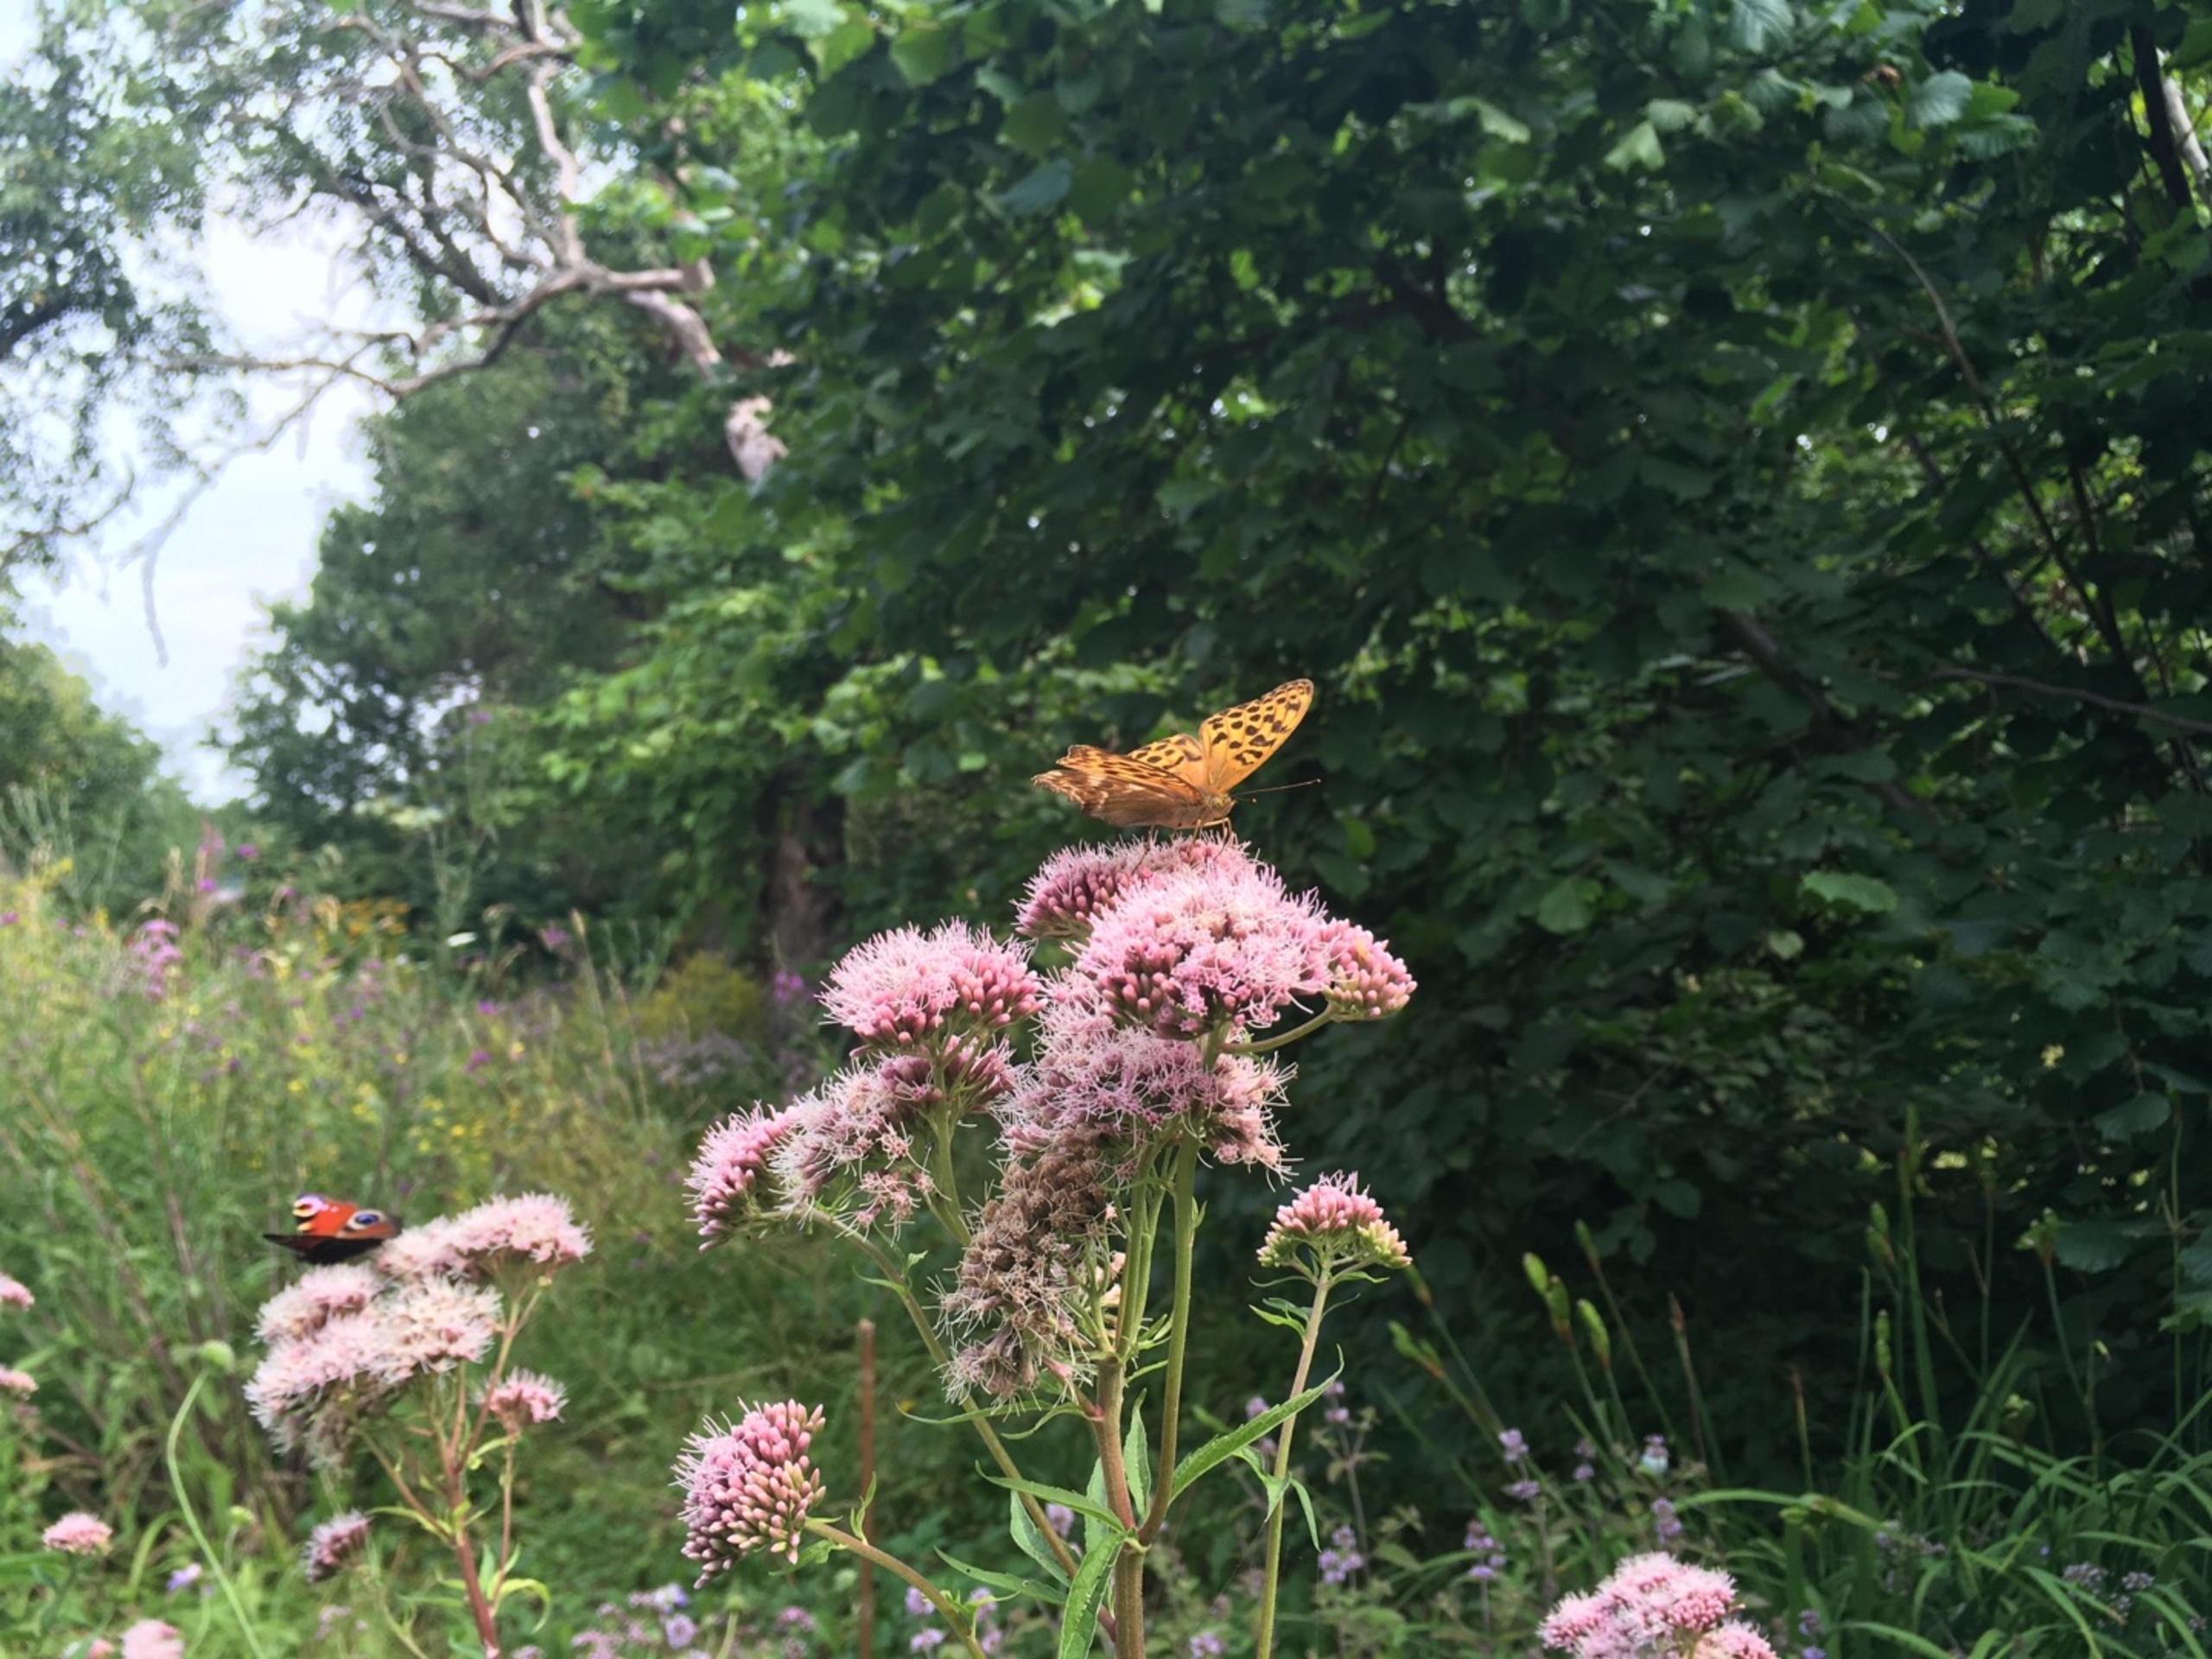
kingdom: Animalia
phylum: Arthropoda
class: Insecta
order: Lepidoptera
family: Nymphalidae
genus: Argynnis
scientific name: Argynnis paphia
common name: Kejserkåbe
